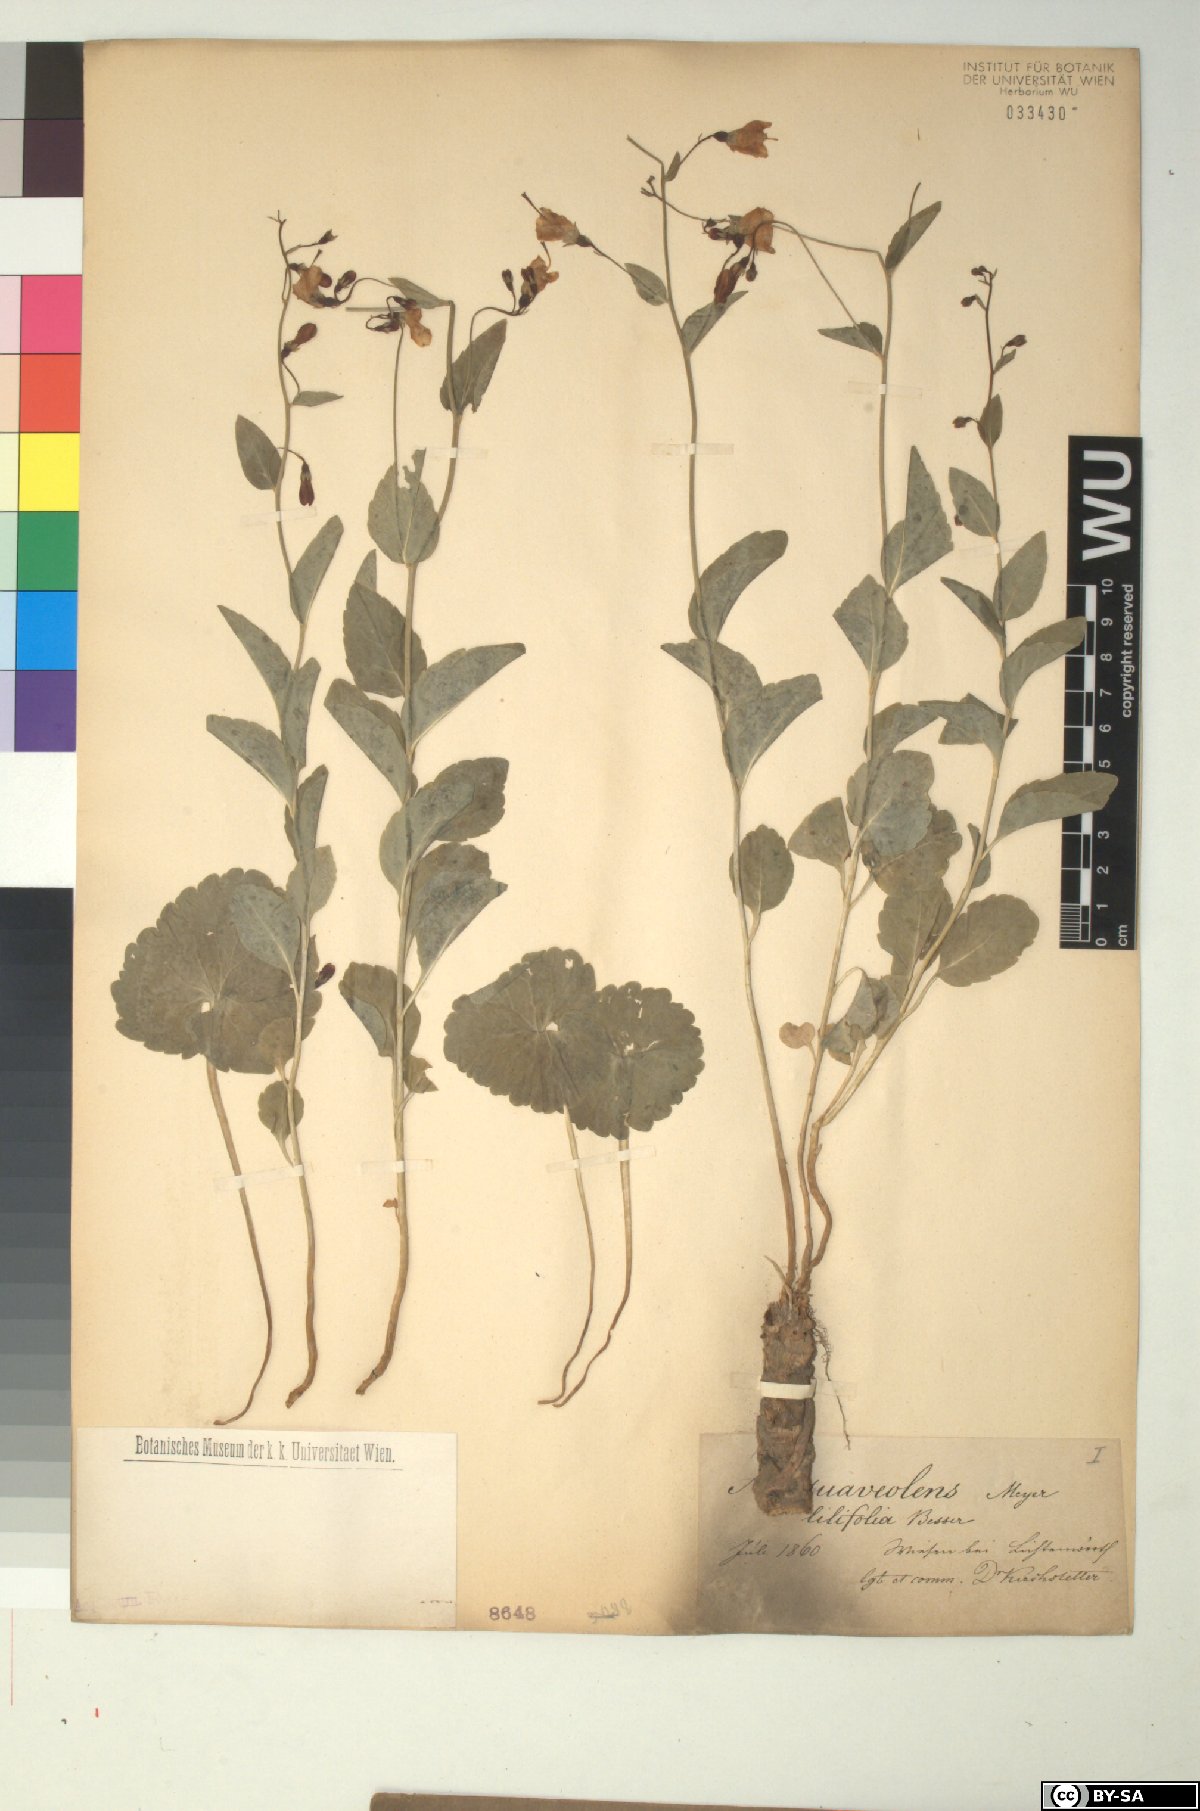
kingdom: Plantae
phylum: Tracheophyta
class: Magnoliopsida
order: Asterales
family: Campanulaceae
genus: Adenophora
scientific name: Adenophora liliifolia
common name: Lilyleaf ladybells
